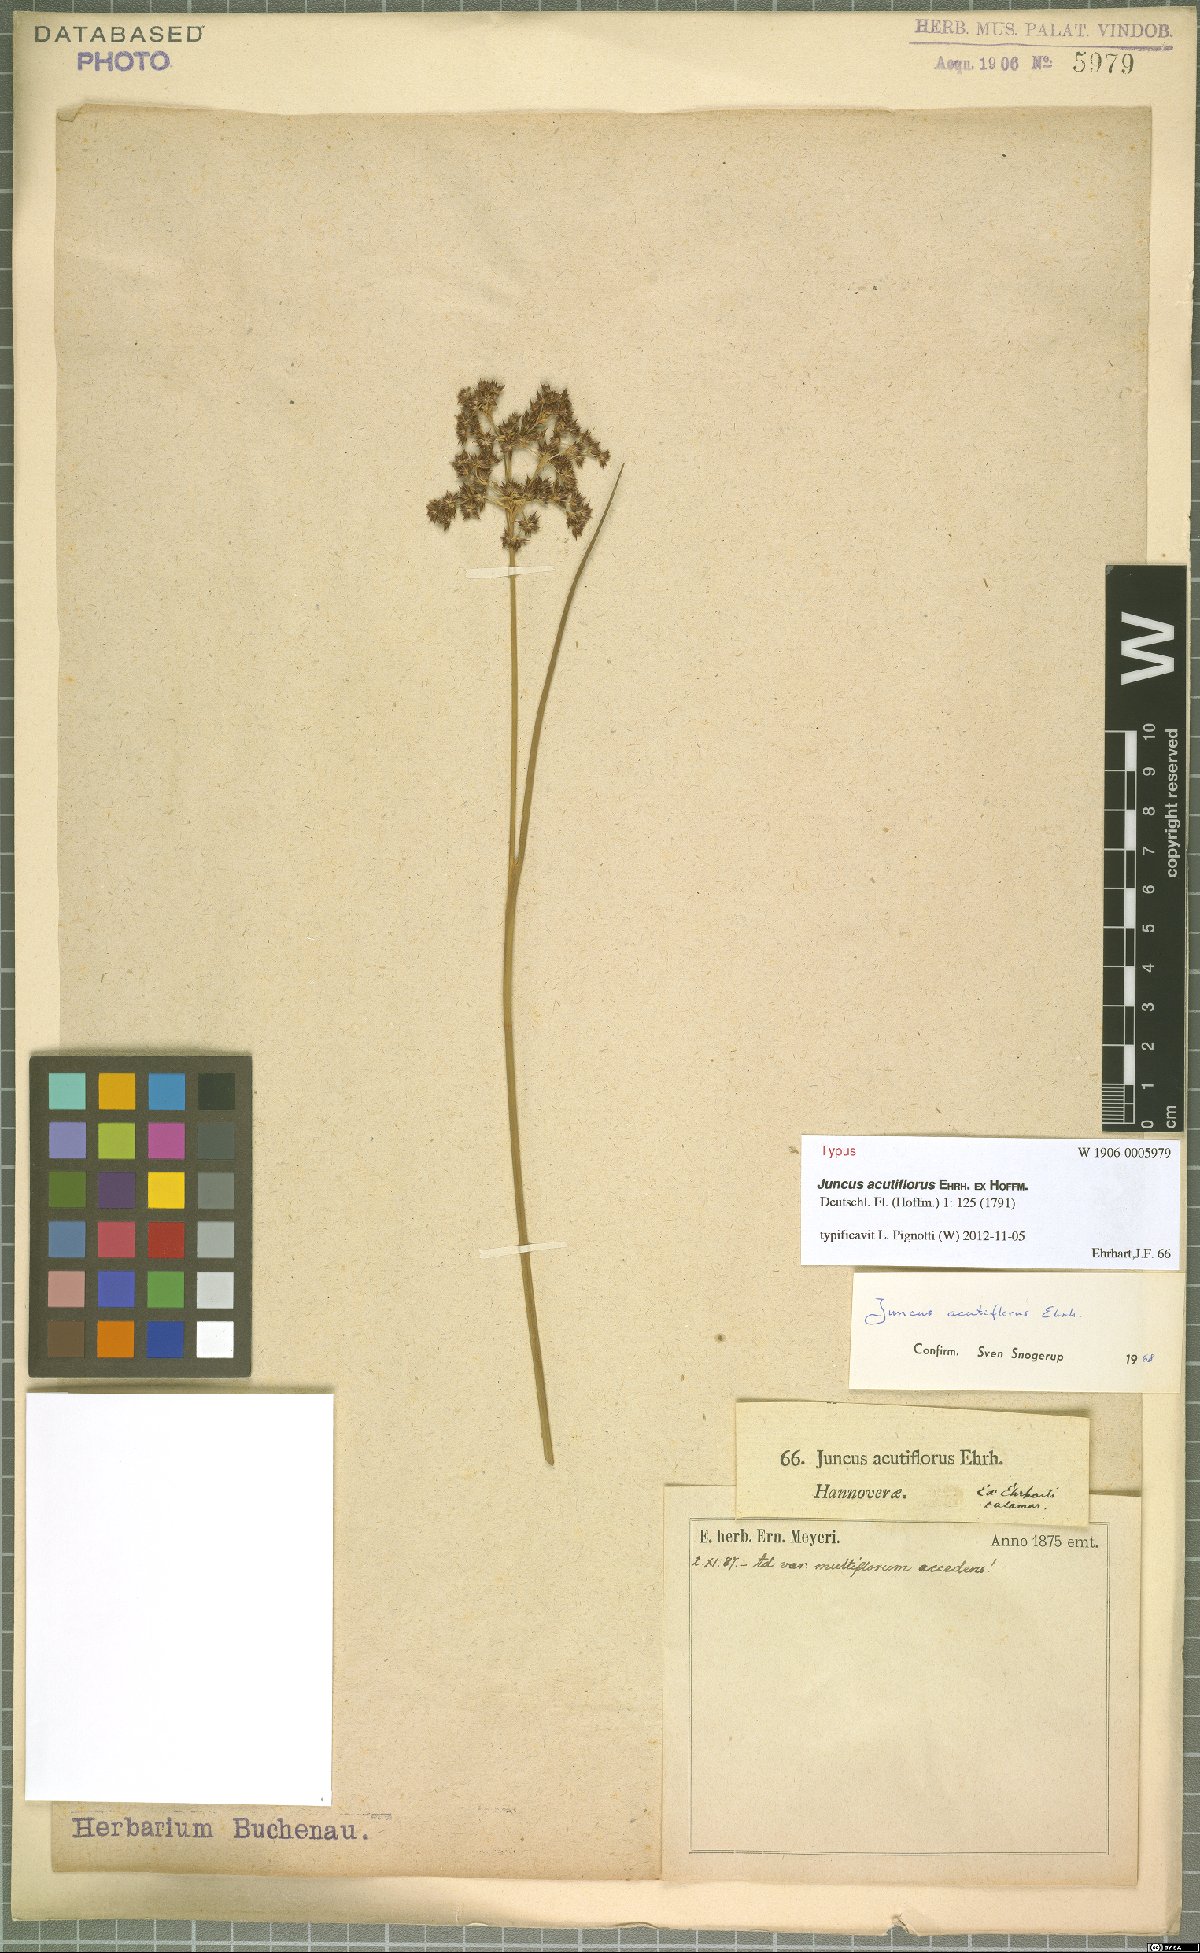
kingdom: Plantae
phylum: Tracheophyta
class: Liliopsida
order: Poales
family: Juncaceae
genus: Juncus
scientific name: Juncus acutiflorus
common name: Sharp-flowered rush
